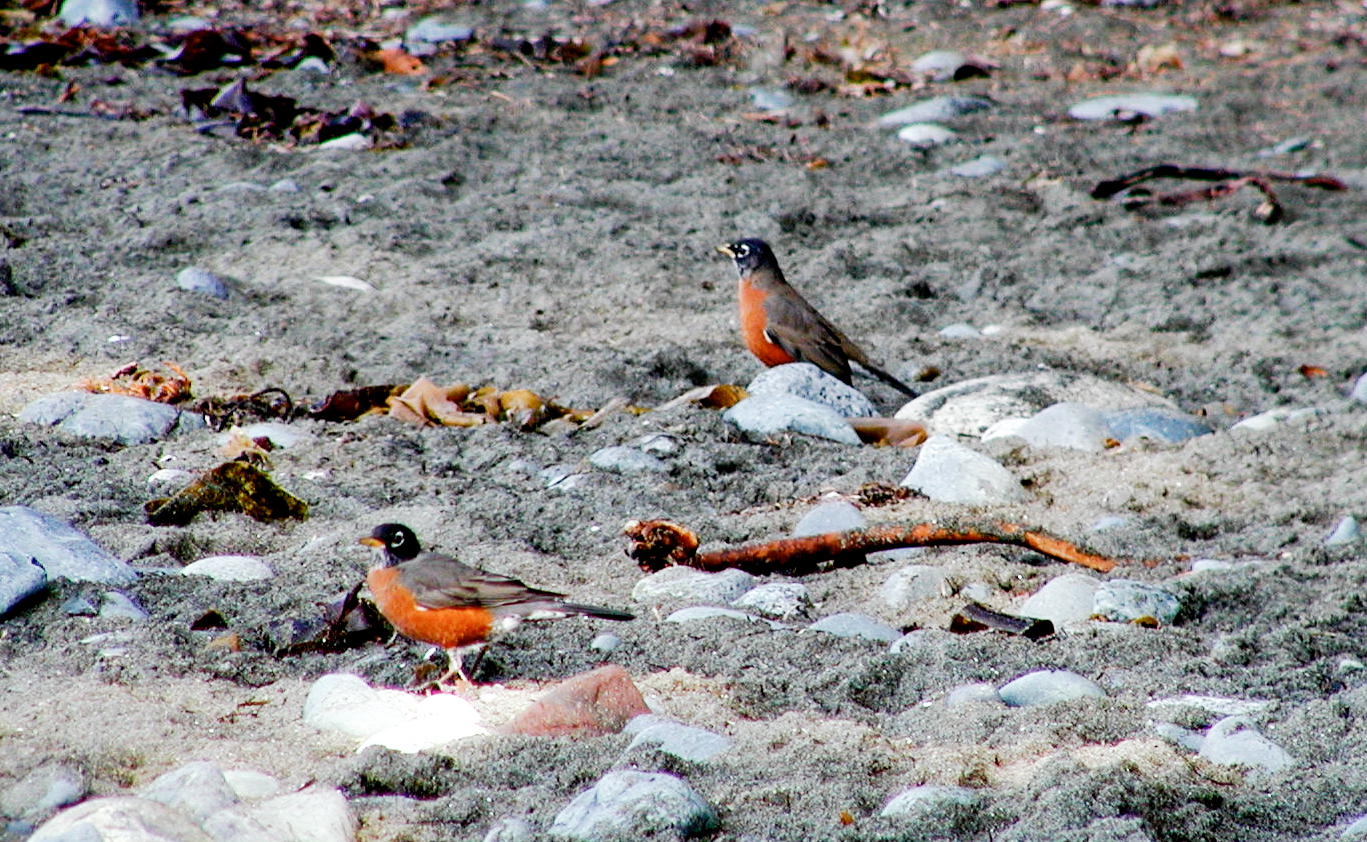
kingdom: Animalia
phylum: Chordata
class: Aves
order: Passeriformes
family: Turdidae
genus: Turdus
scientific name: Turdus migratorius
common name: American robin
